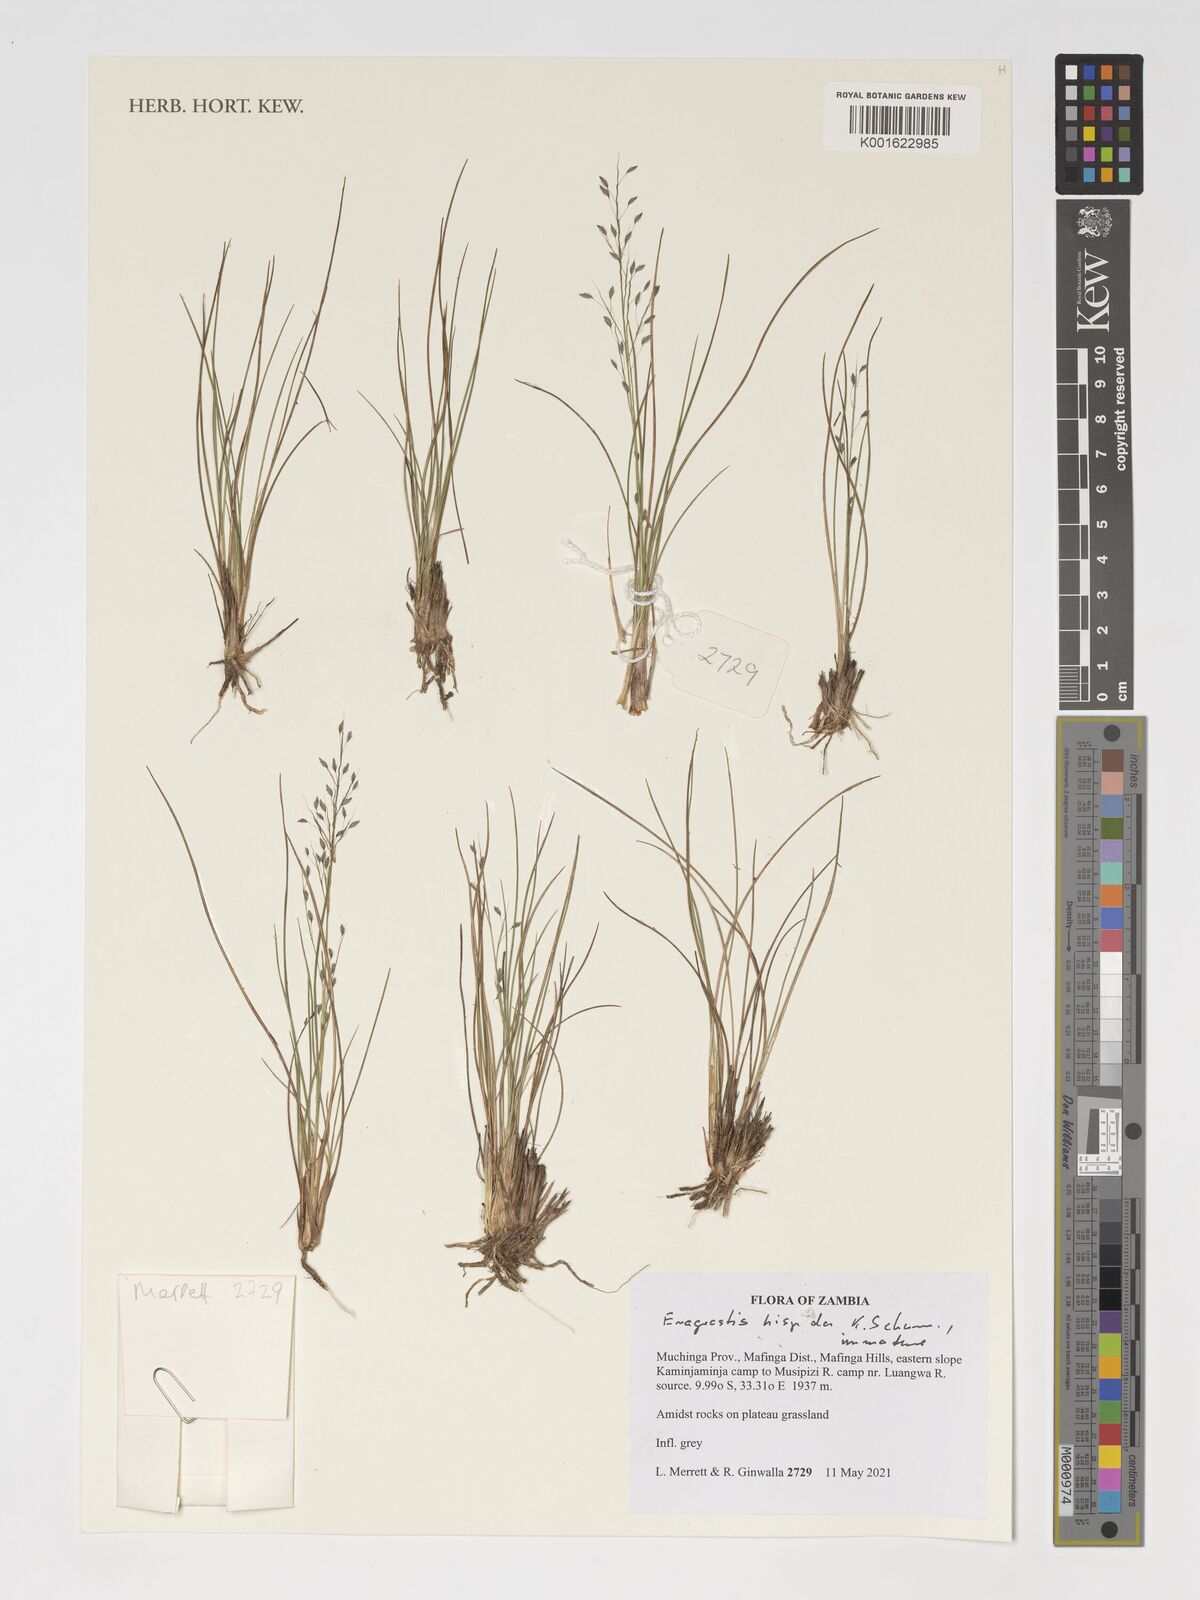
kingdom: Plantae
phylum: Tracheophyta
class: Liliopsida
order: Poales
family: Poaceae
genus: Eragrostis
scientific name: Eragrostis hispida
